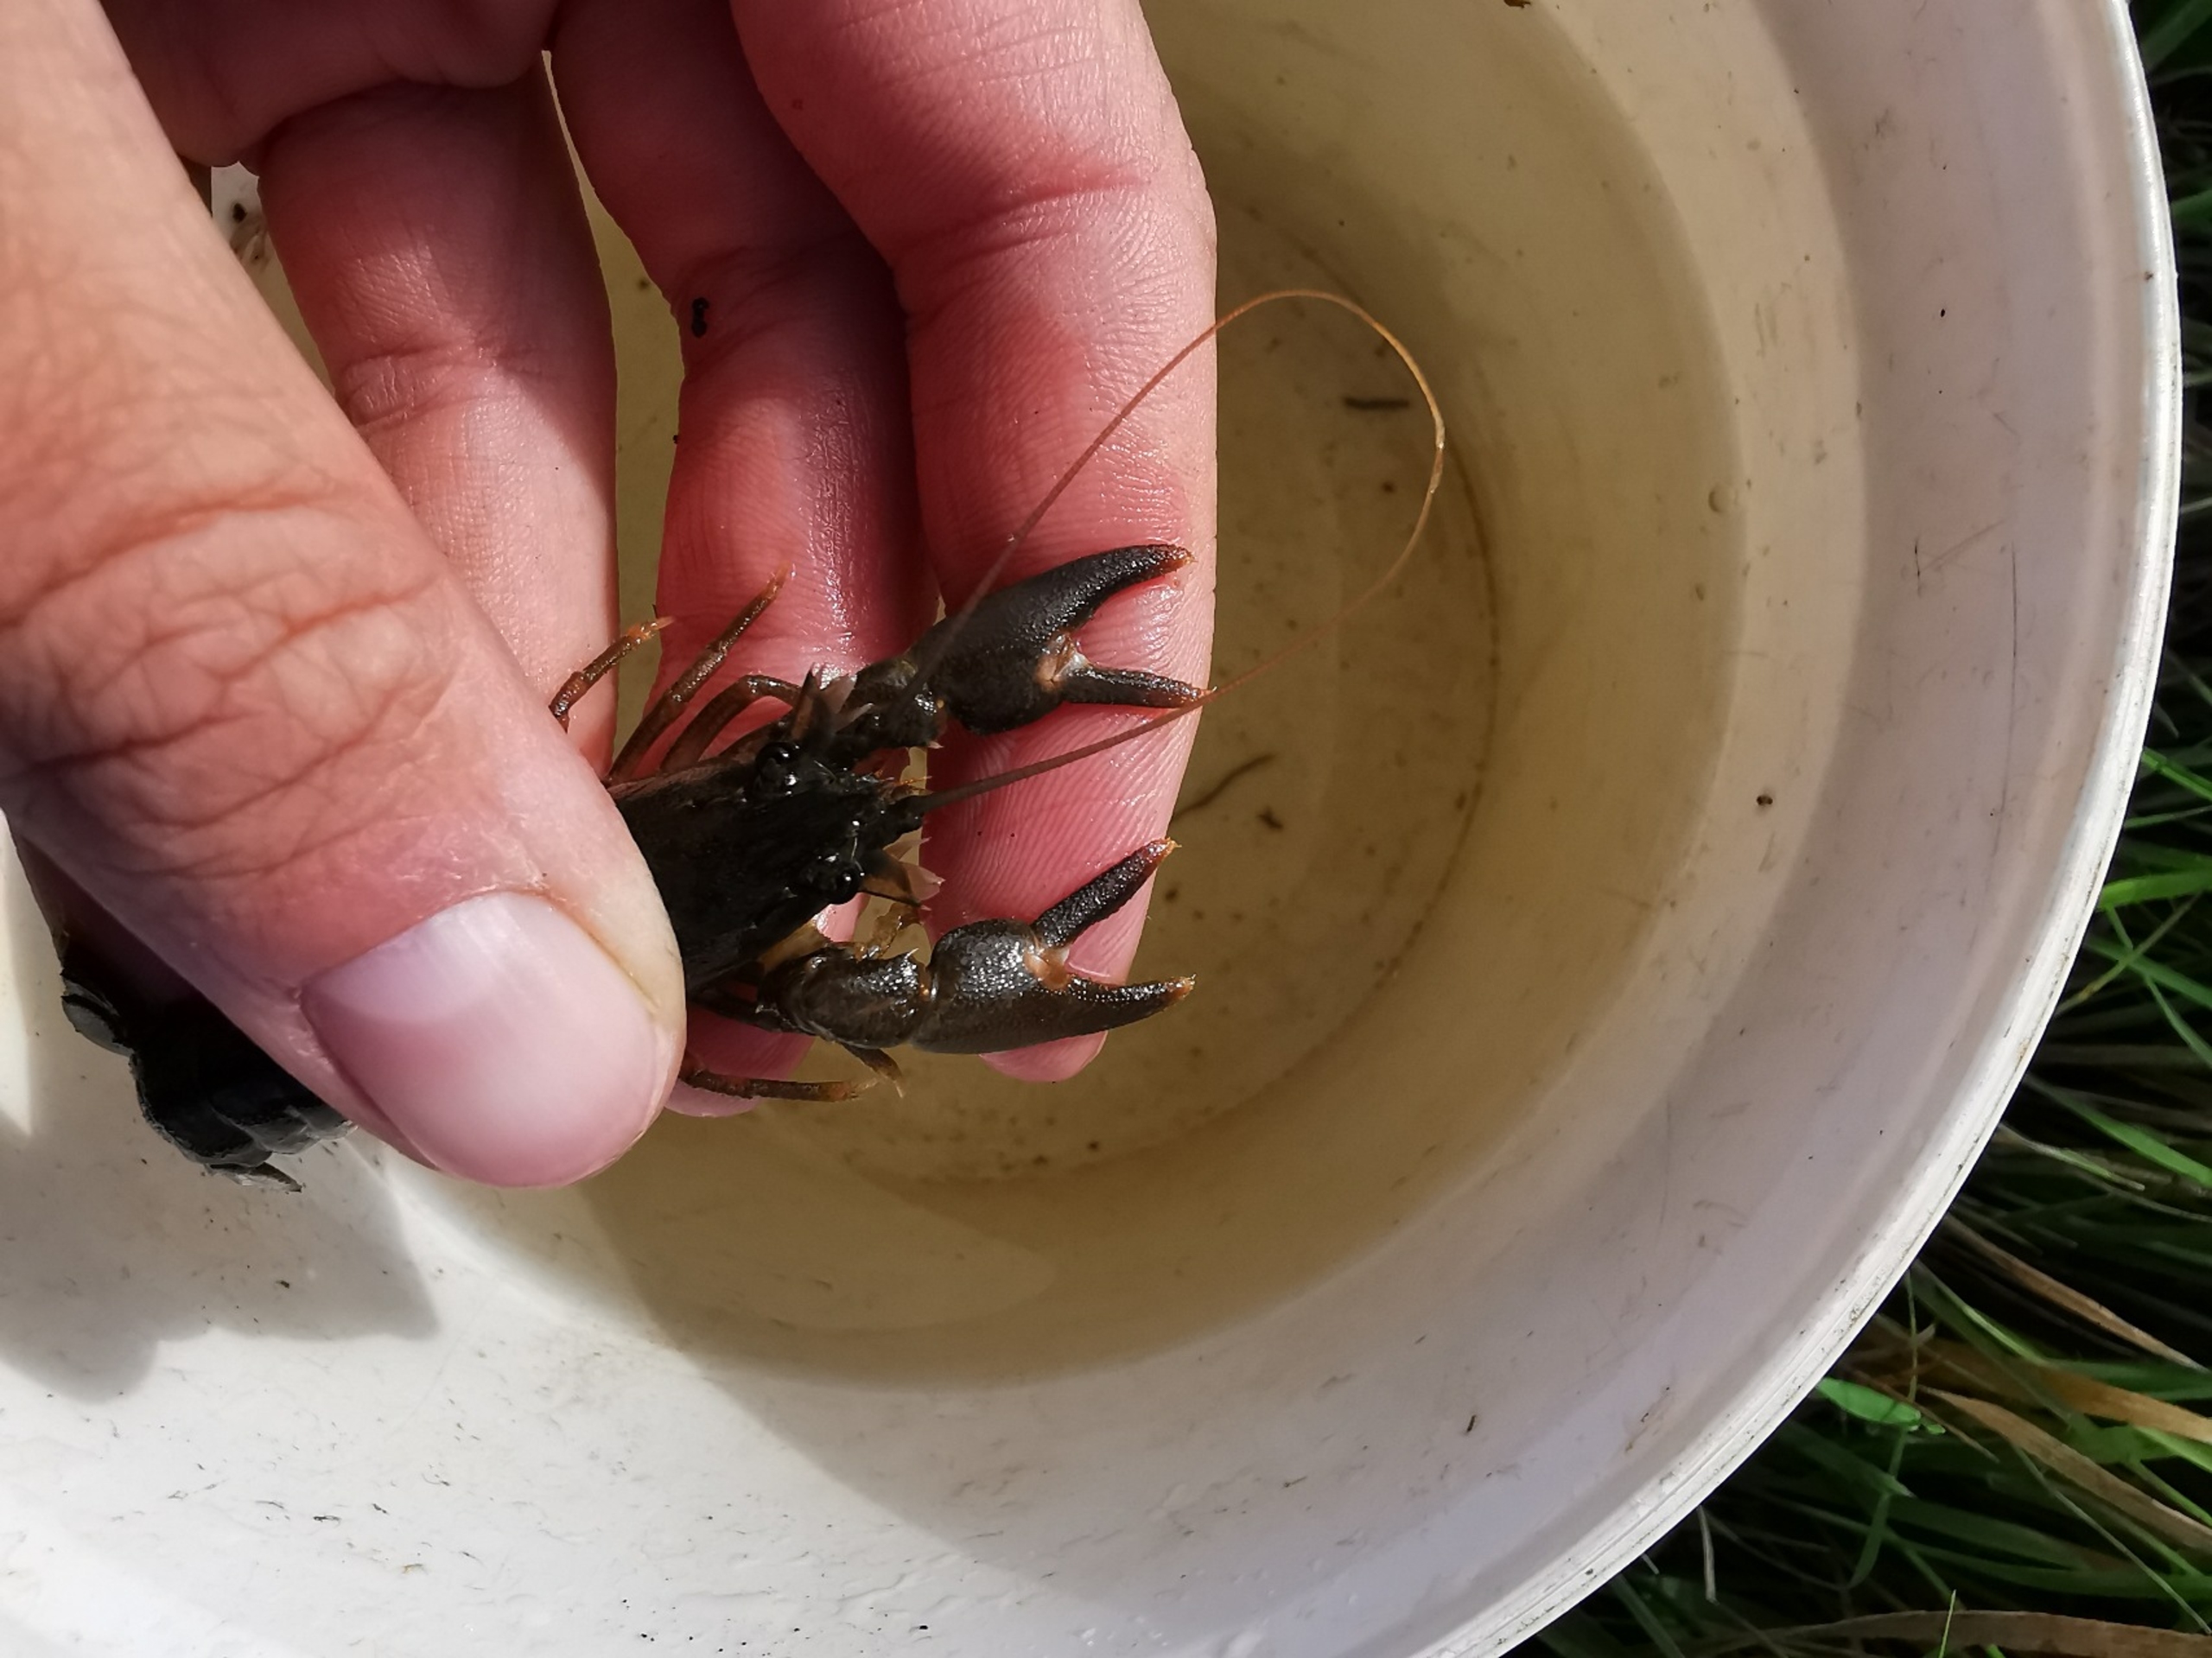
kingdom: Animalia
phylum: Arthropoda
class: Malacostraca
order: Decapoda
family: Astacidae
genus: Pacifastacus
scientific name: Pacifastacus leniusculus
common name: Signalkrebs
